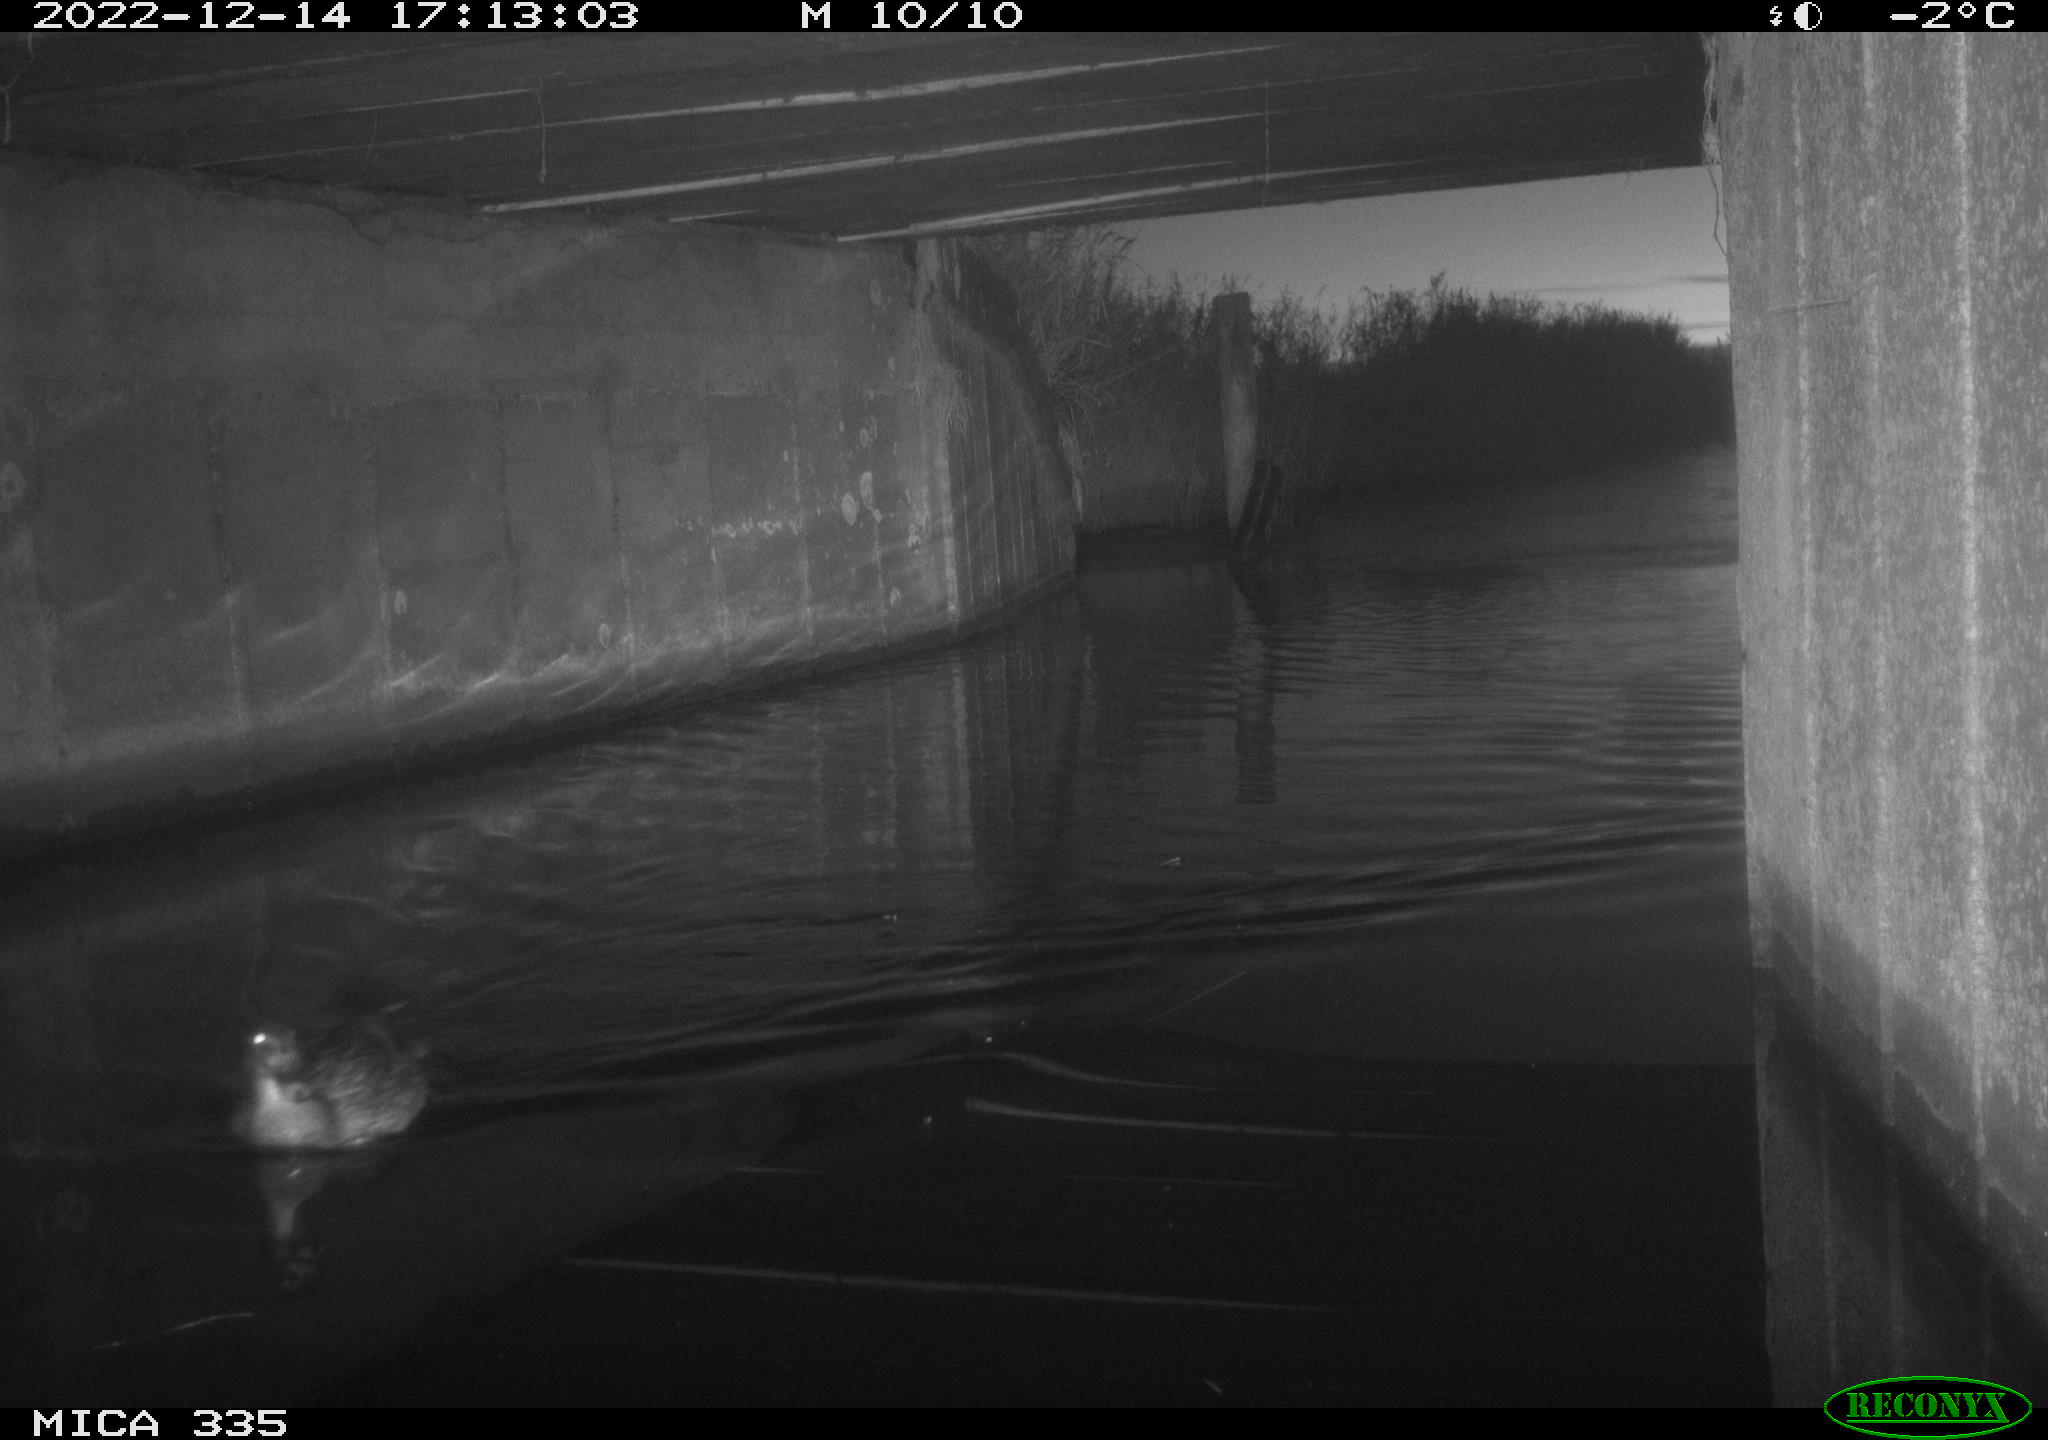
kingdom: Animalia
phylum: Chordata
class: Aves
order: Anseriformes
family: Anatidae
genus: Anas
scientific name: Anas
